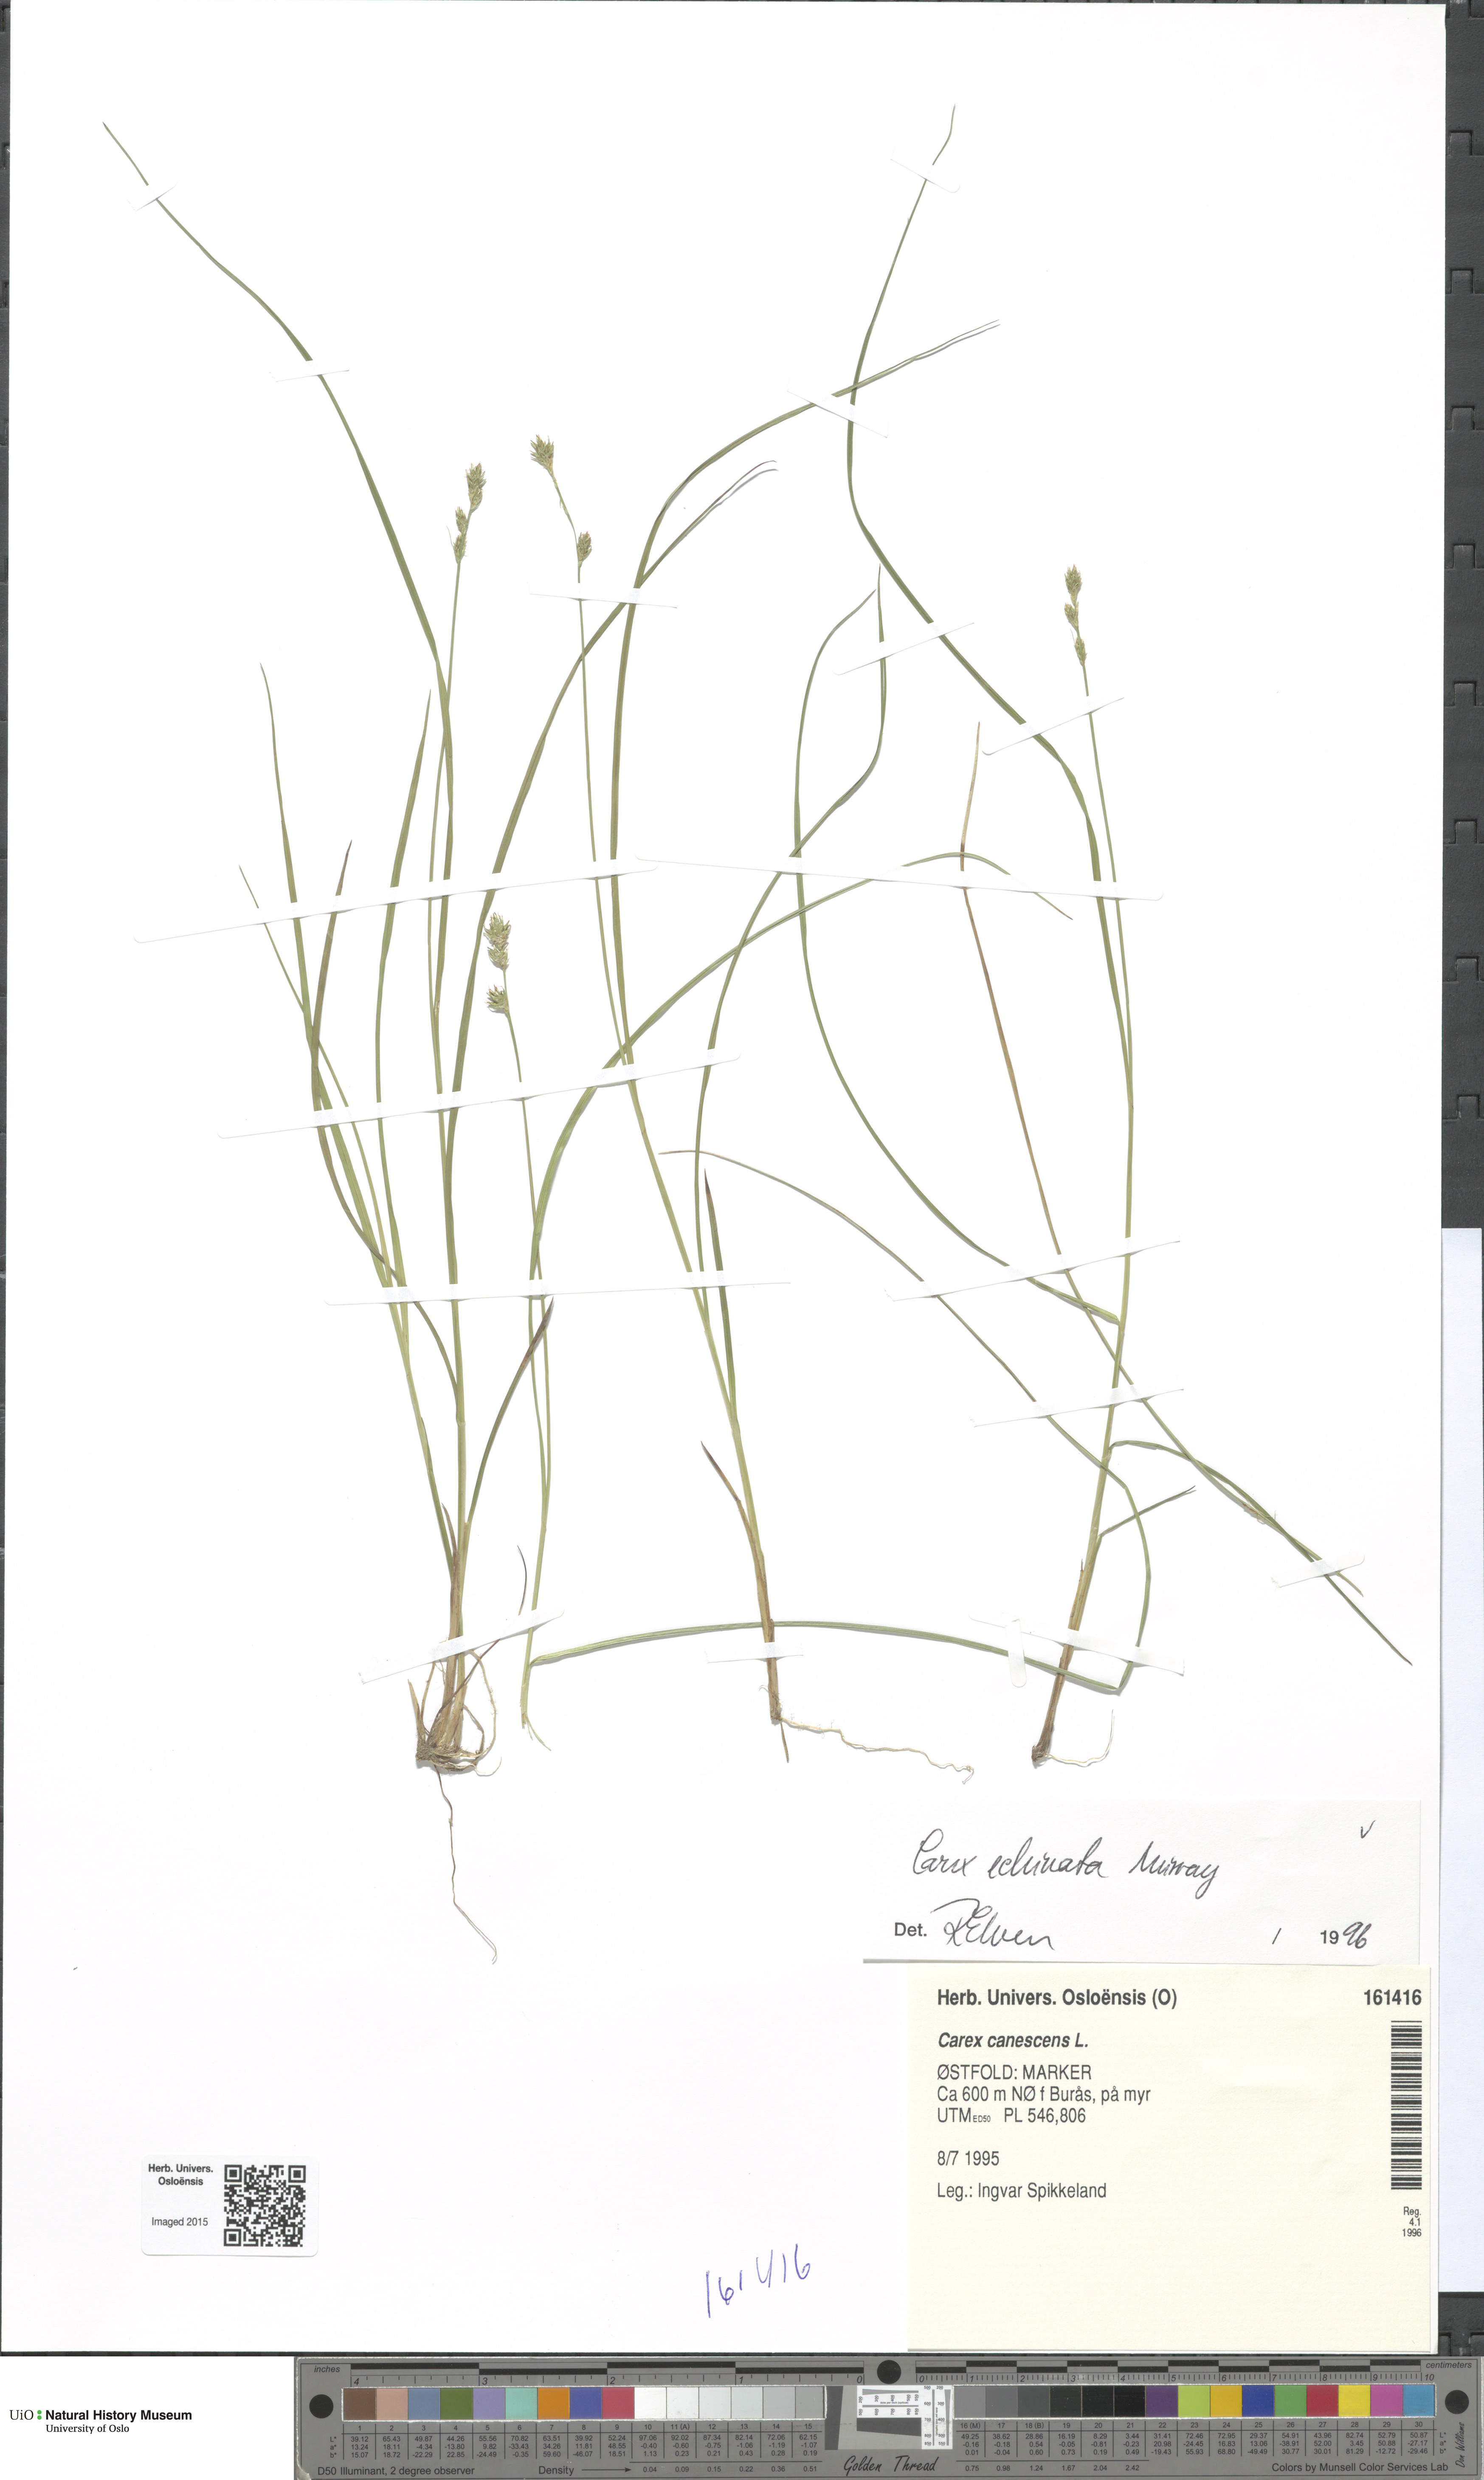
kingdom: Plantae
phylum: Tracheophyta
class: Liliopsida
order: Poales
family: Cyperaceae
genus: Carex
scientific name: Carex echinata
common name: Star sedge
